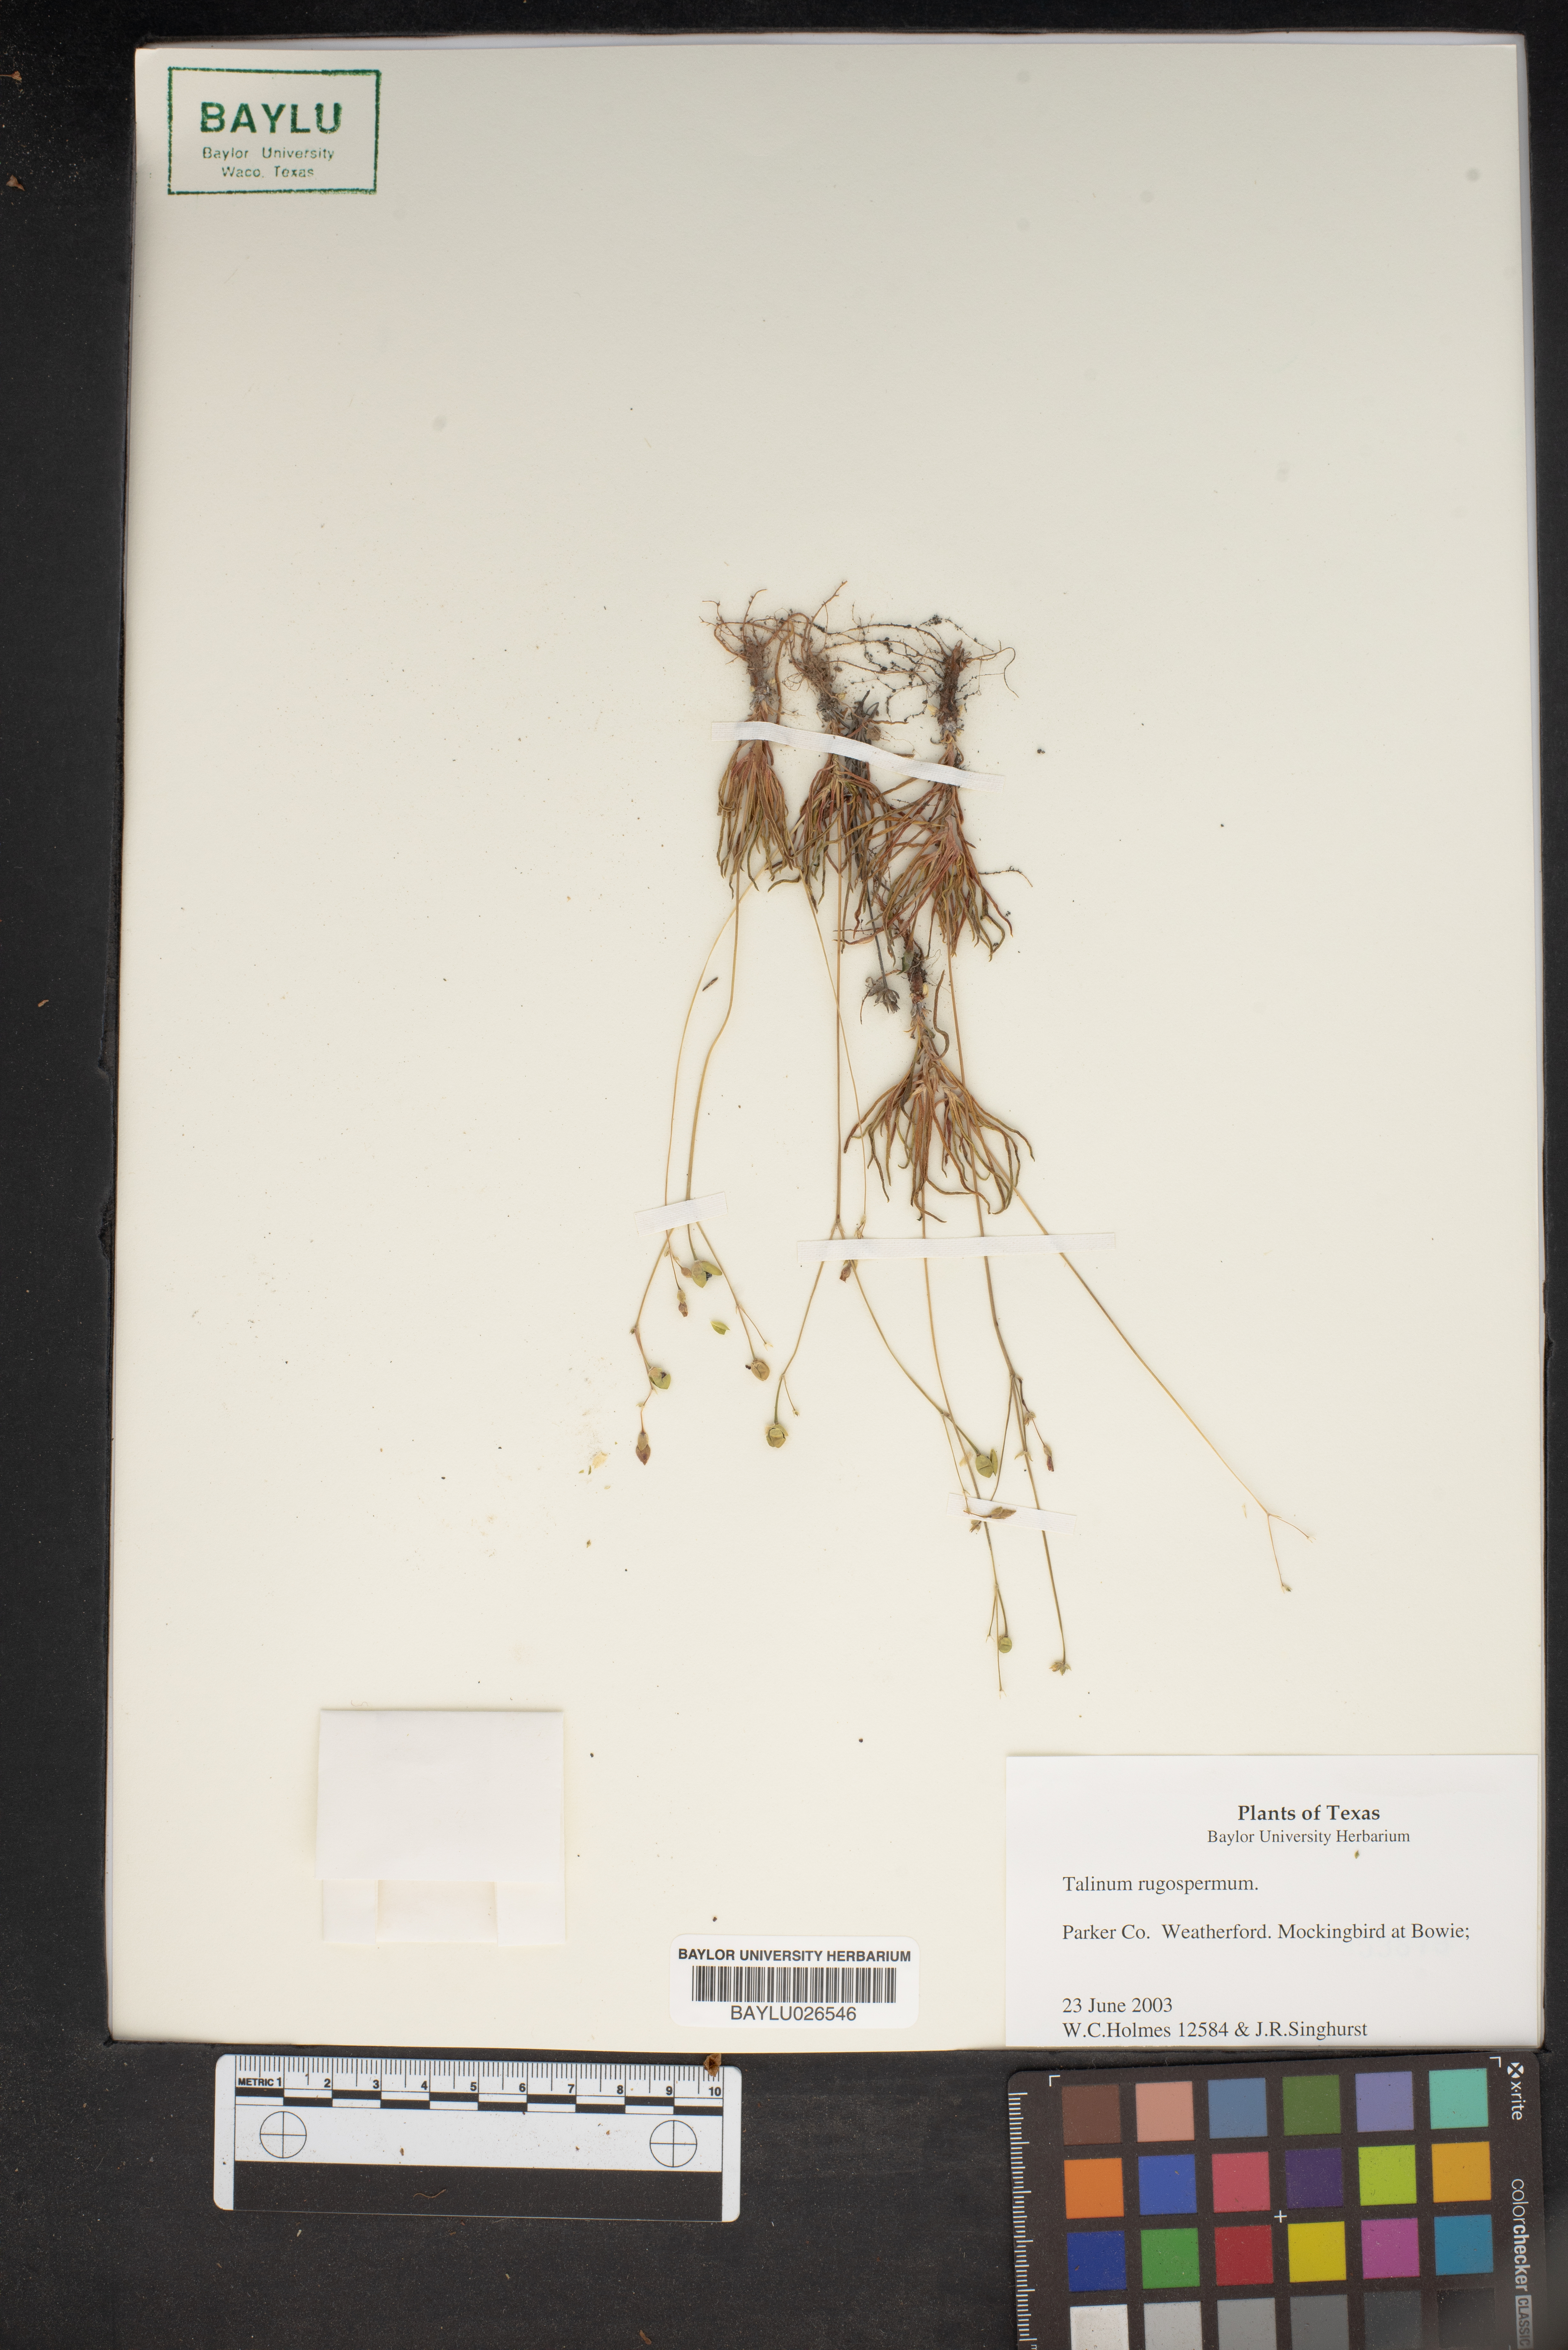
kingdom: Plantae
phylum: Tracheophyta
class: Magnoliopsida
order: Caryophyllales
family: Montiaceae
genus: Phemeranthus
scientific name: Phemeranthus rugospermus
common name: Prairie fameflower
